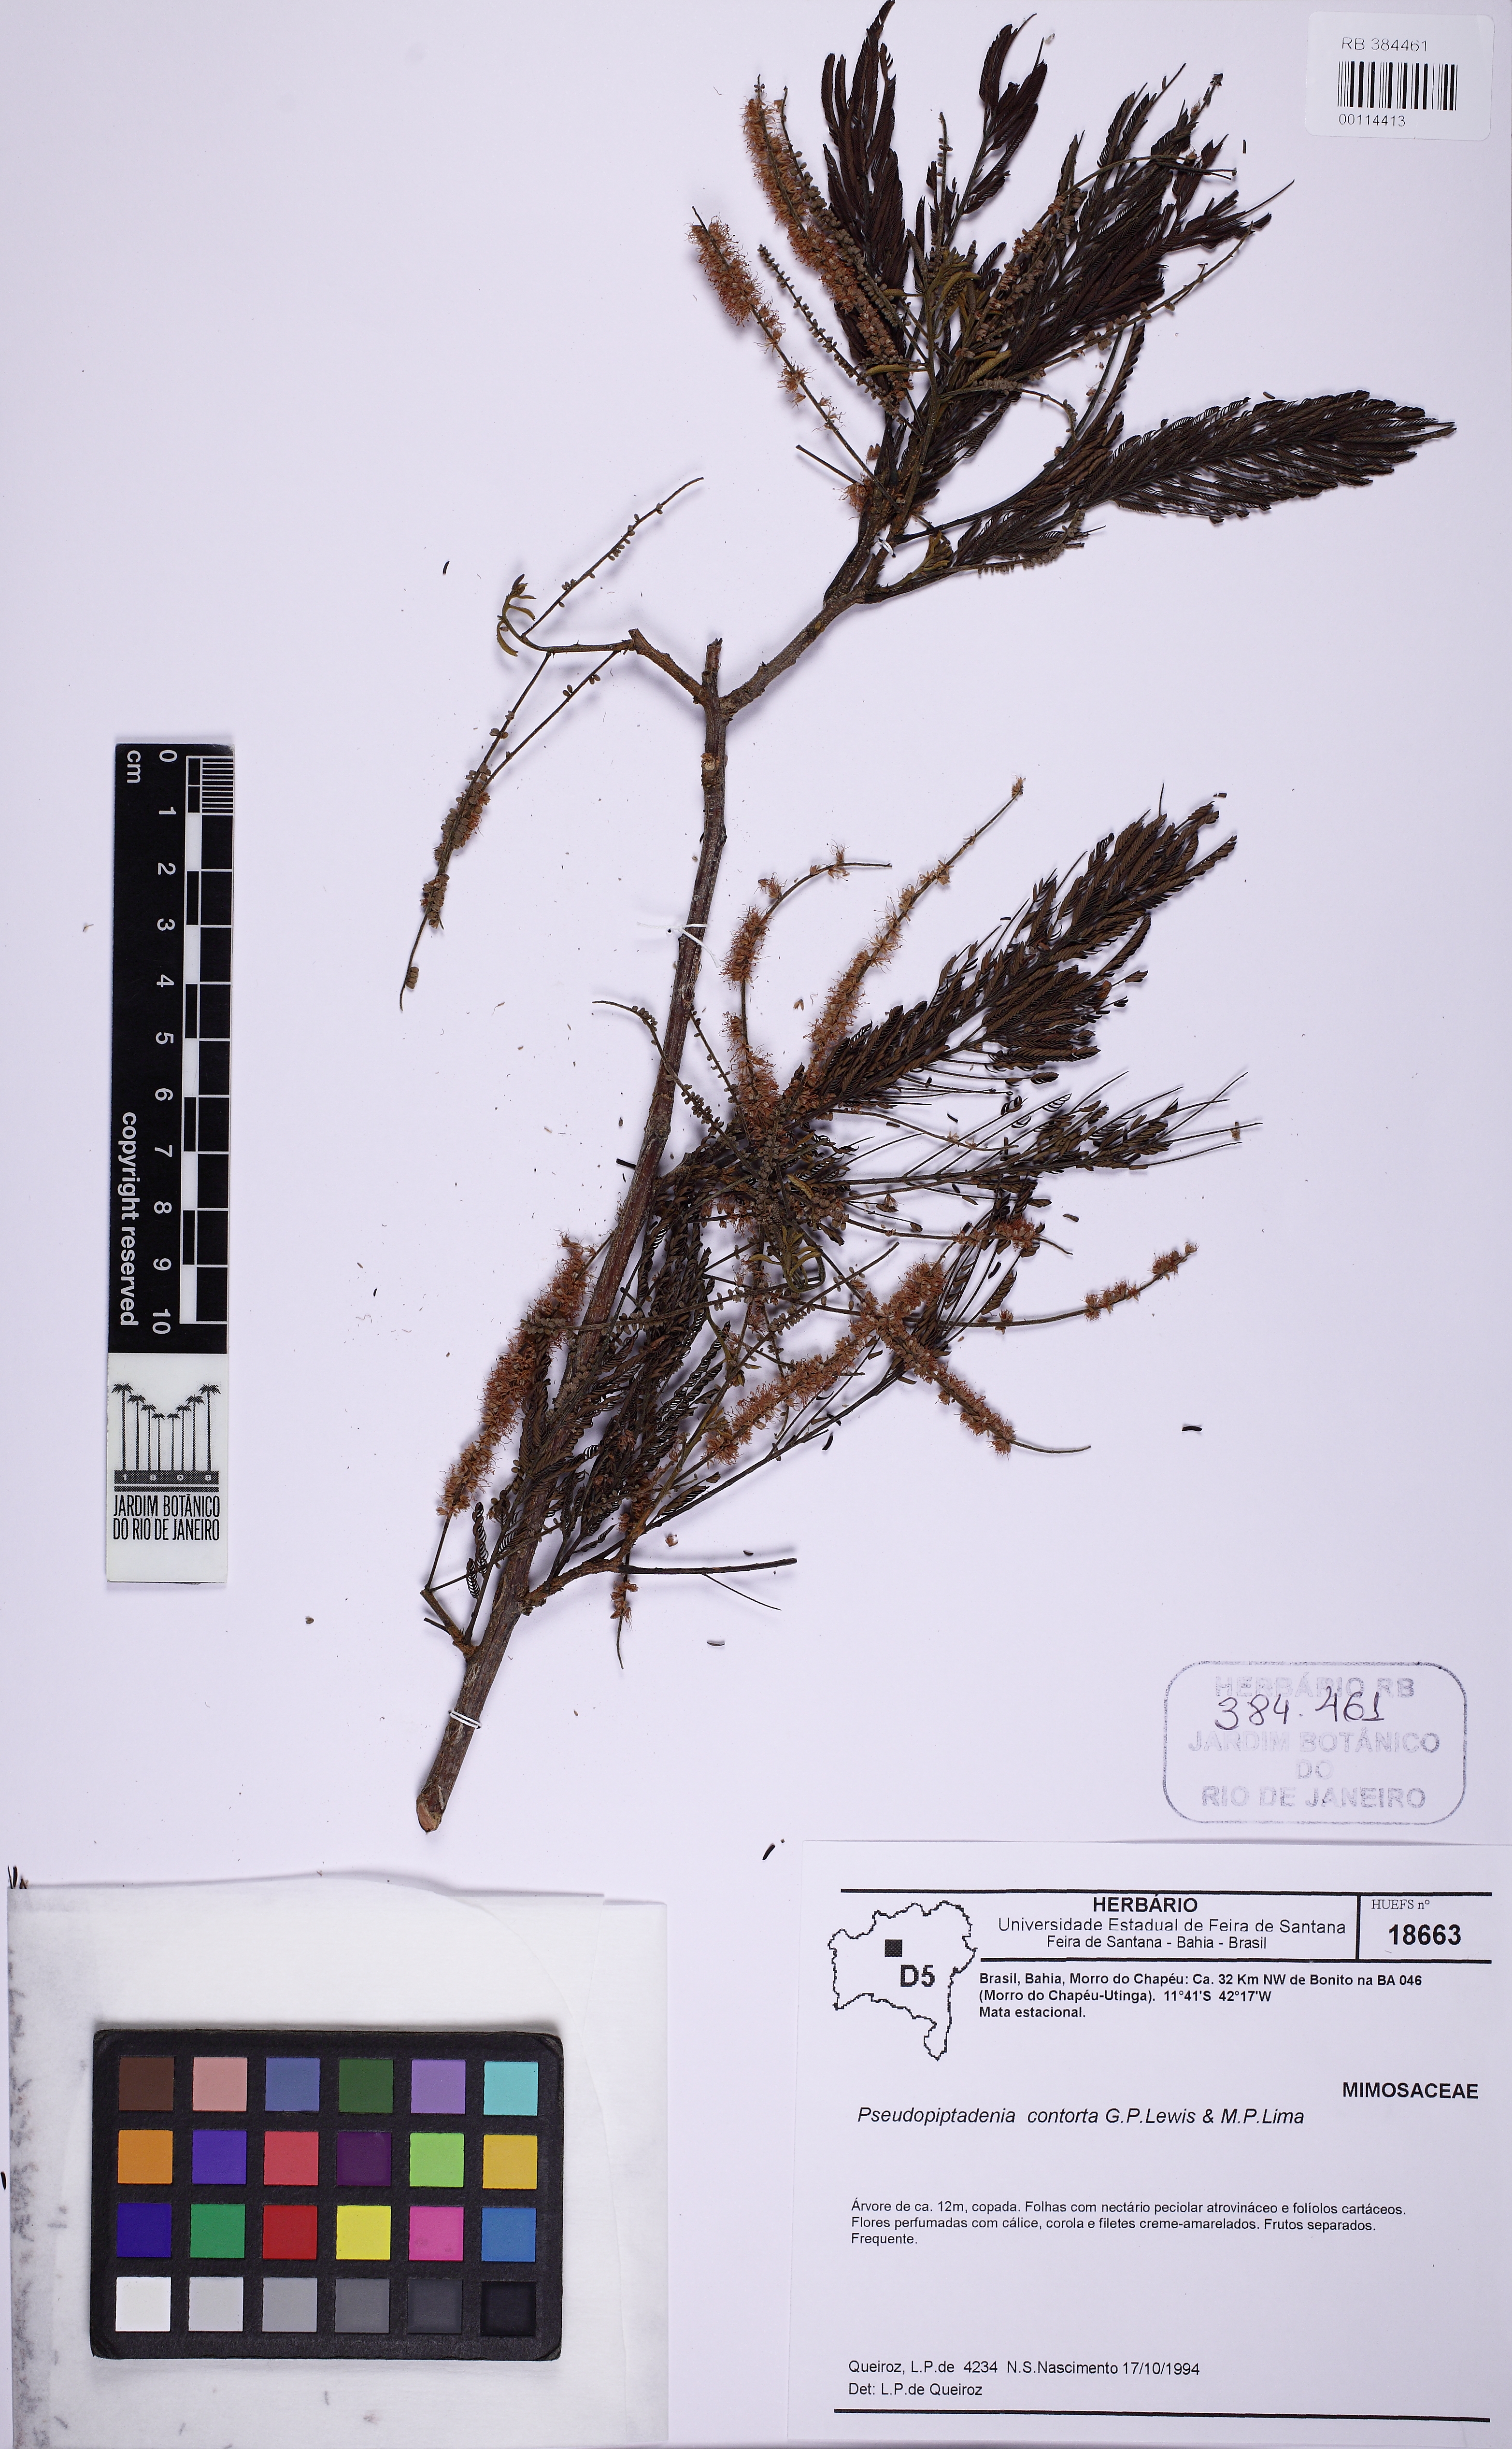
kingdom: Plantae
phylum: Tracheophyta
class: Magnoliopsida
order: Fabales
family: Fabaceae
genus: Pseudopiptadenia
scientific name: Pseudopiptadenia contorta
